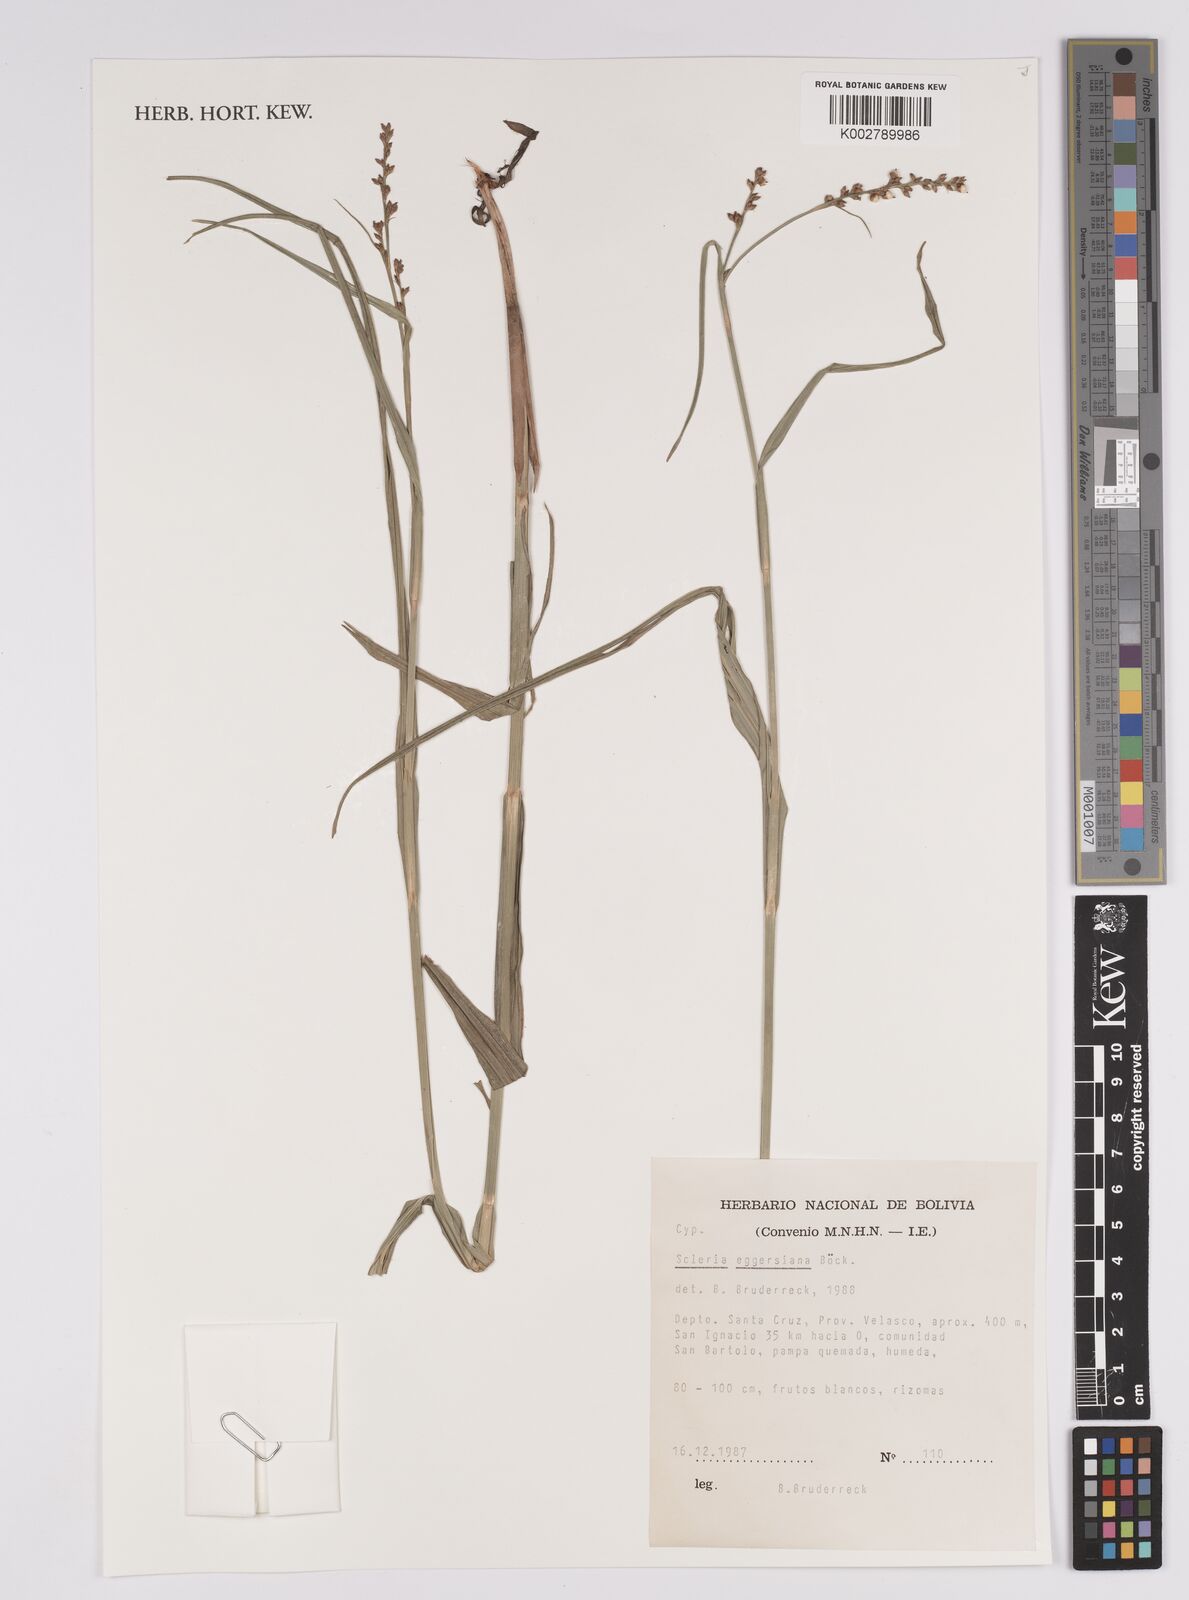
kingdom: Plantae
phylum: Tracheophyta
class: Liliopsida
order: Poales
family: Cyperaceae
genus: Scleria
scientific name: Scleria eggersiana
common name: Eggers' nutrush
